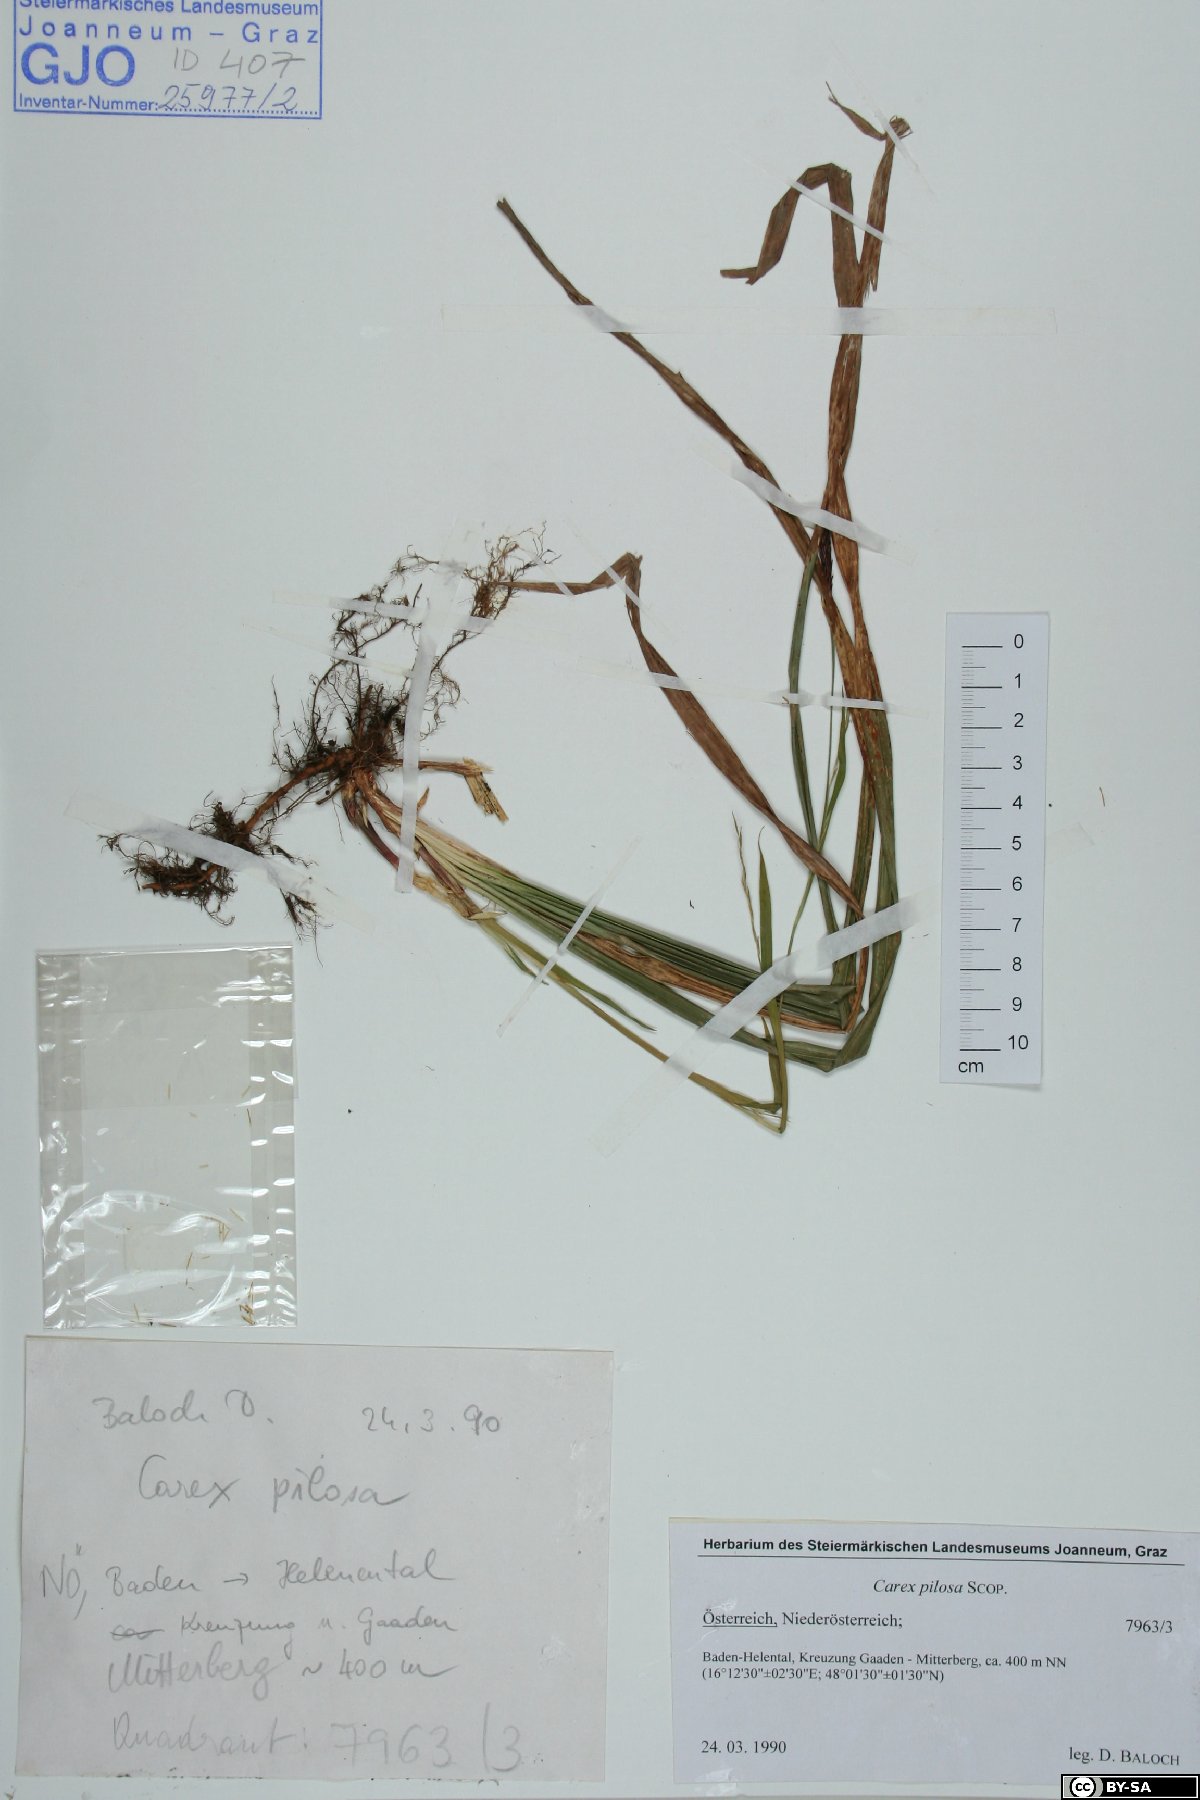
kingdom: Plantae
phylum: Tracheophyta
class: Liliopsida
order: Poales
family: Cyperaceae
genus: Carex
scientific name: Carex pilosa
